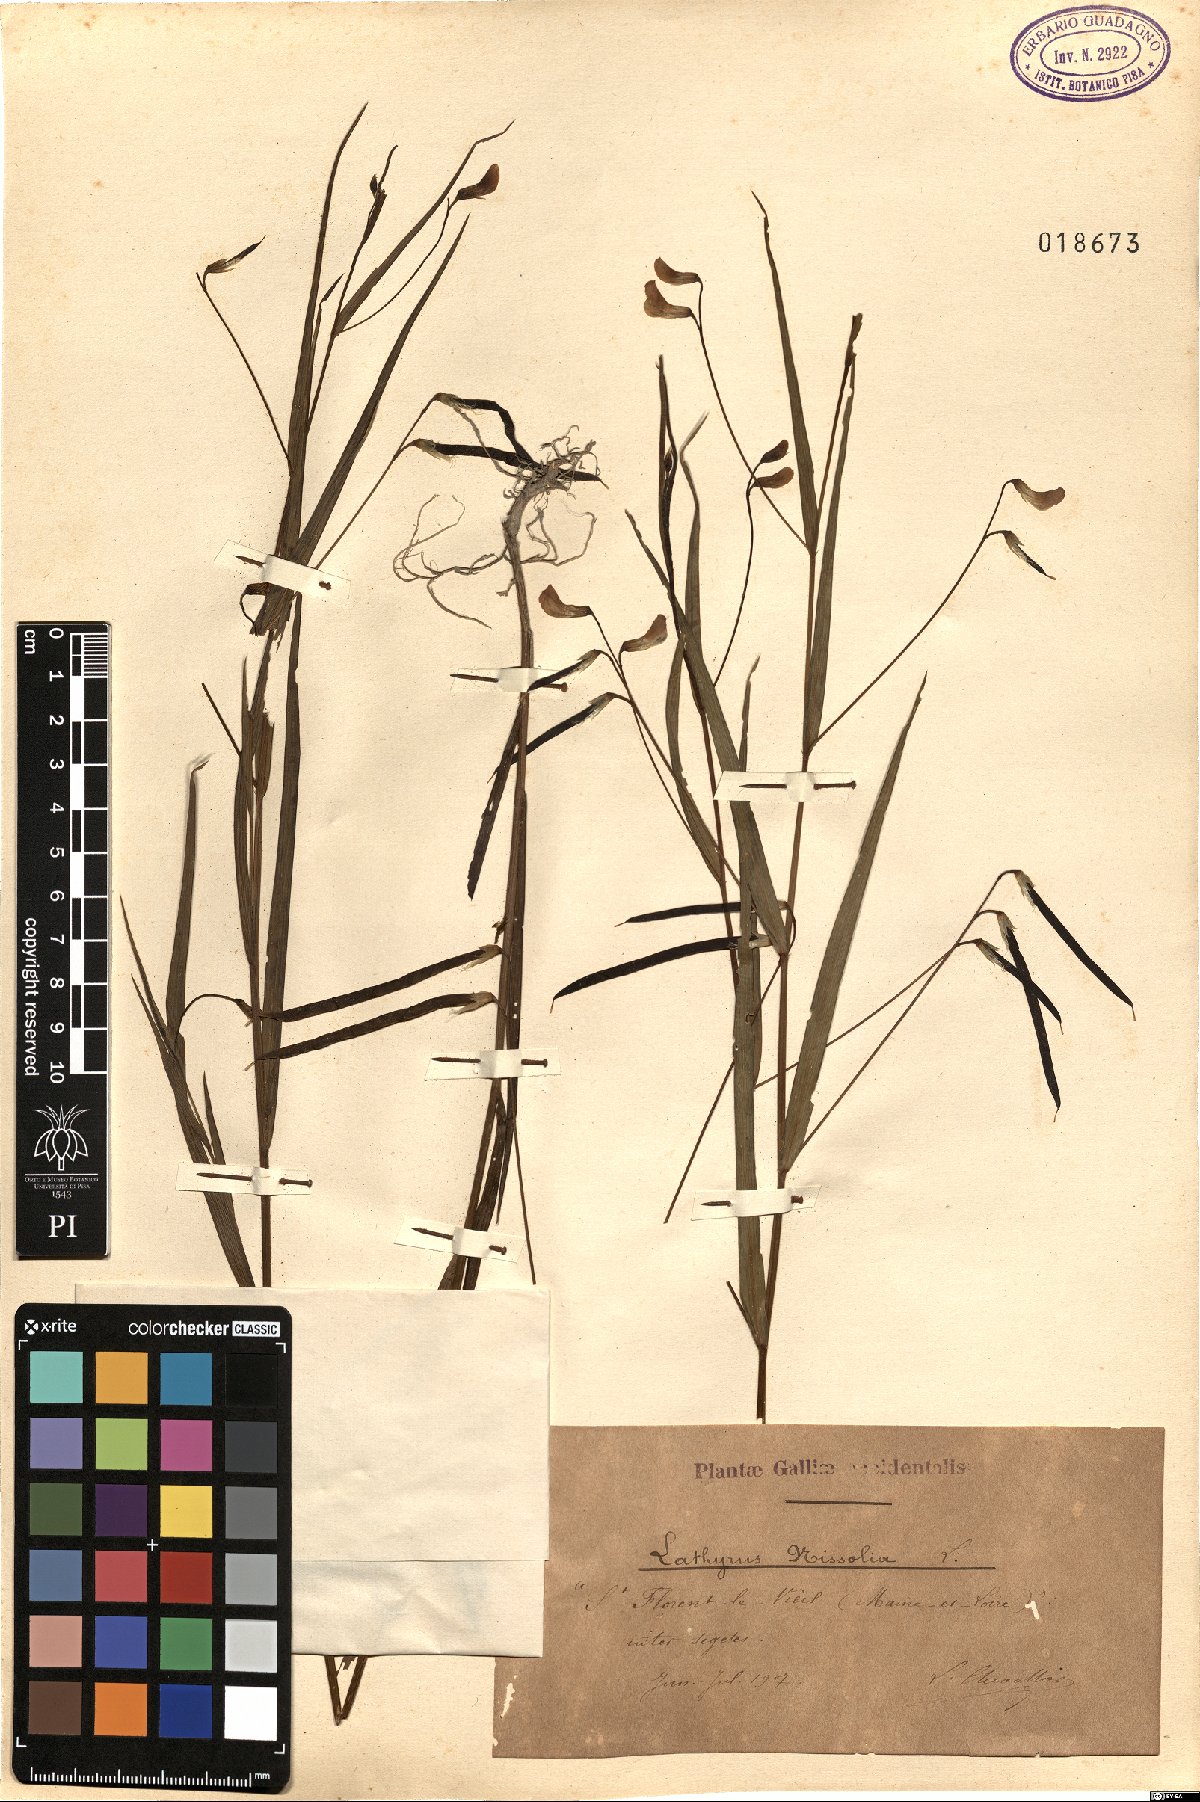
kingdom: Plantae
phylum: Tracheophyta
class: Magnoliopsida
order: Fabales
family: Fabaceae
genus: Lathyrus
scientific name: Lathyrus nissolia
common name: Grass vetchling
